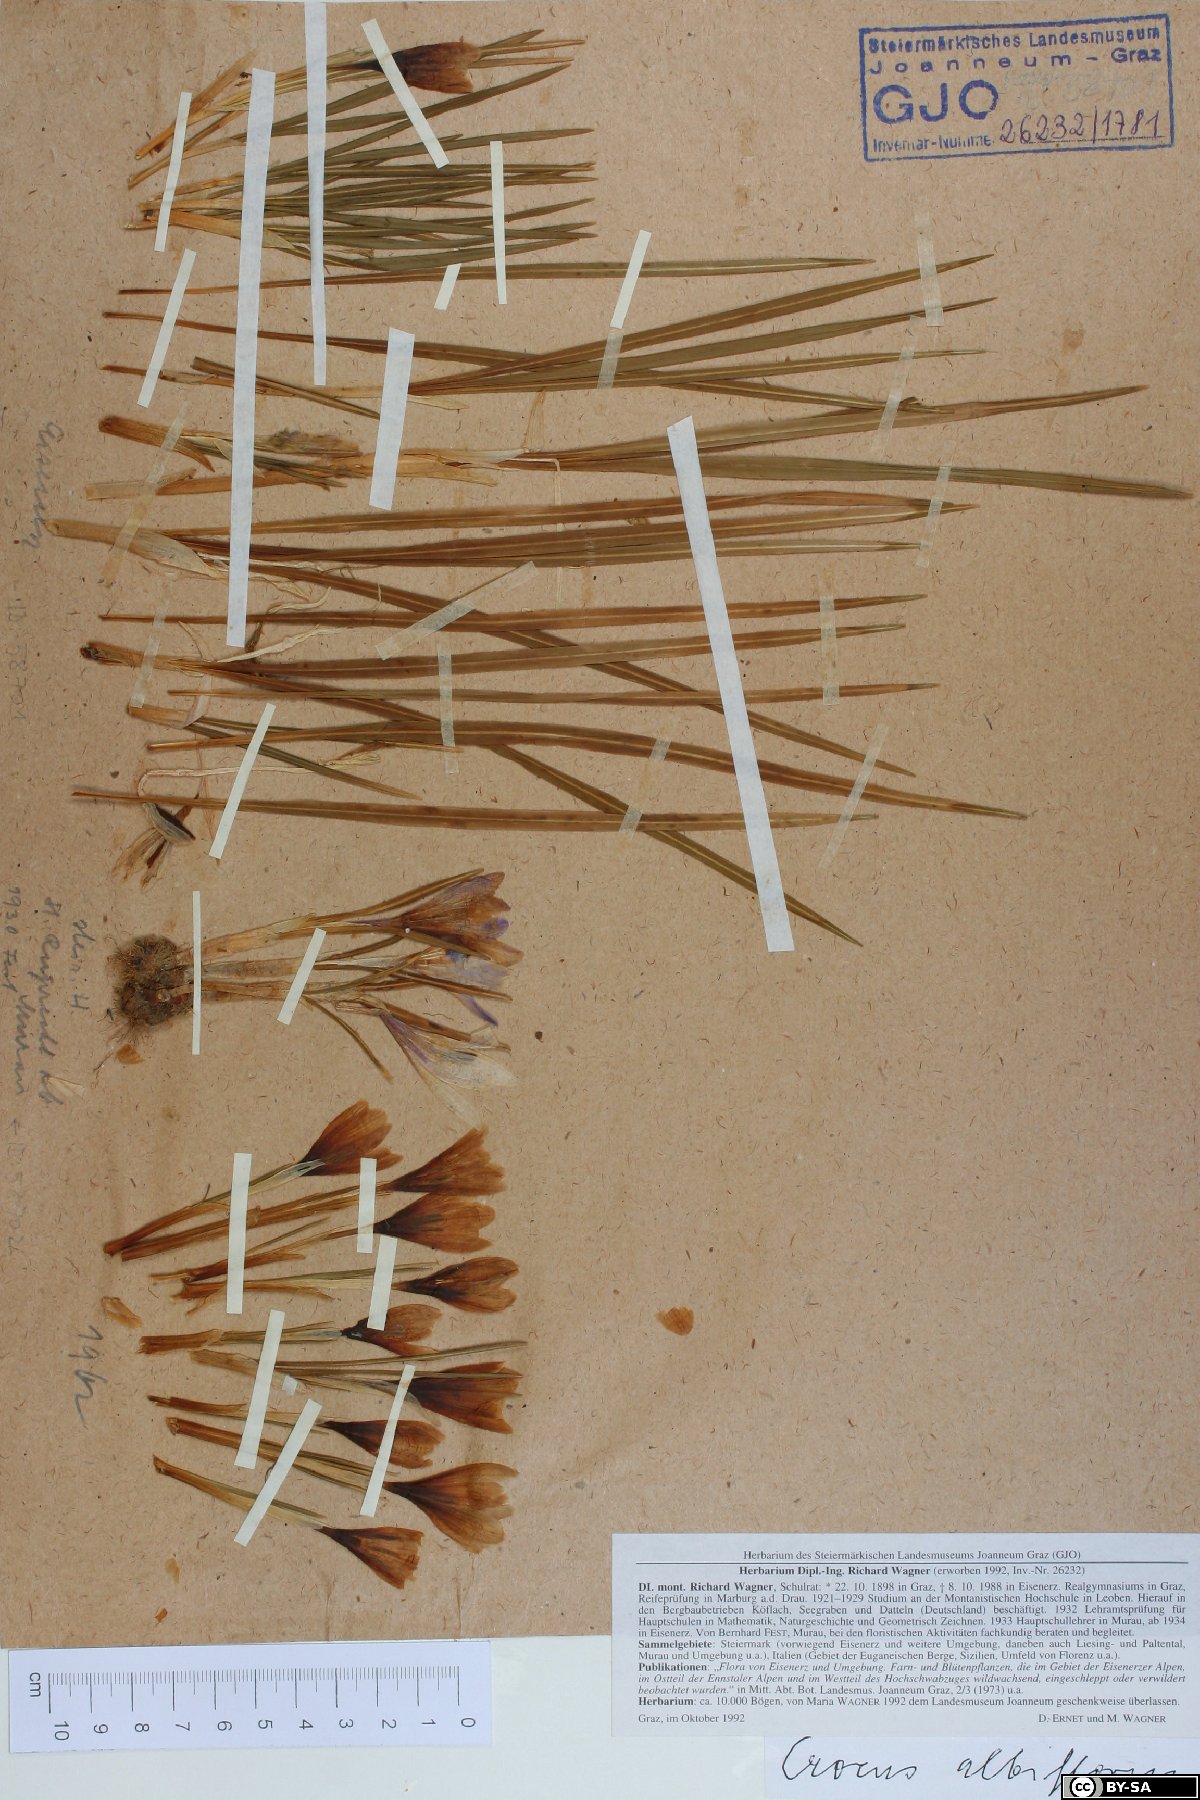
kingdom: Plantae
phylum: Tracheophyta
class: Liliopsida
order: Asparagales
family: Iridaceae
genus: Crocus
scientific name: Crocus vernus
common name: Spring crocus
